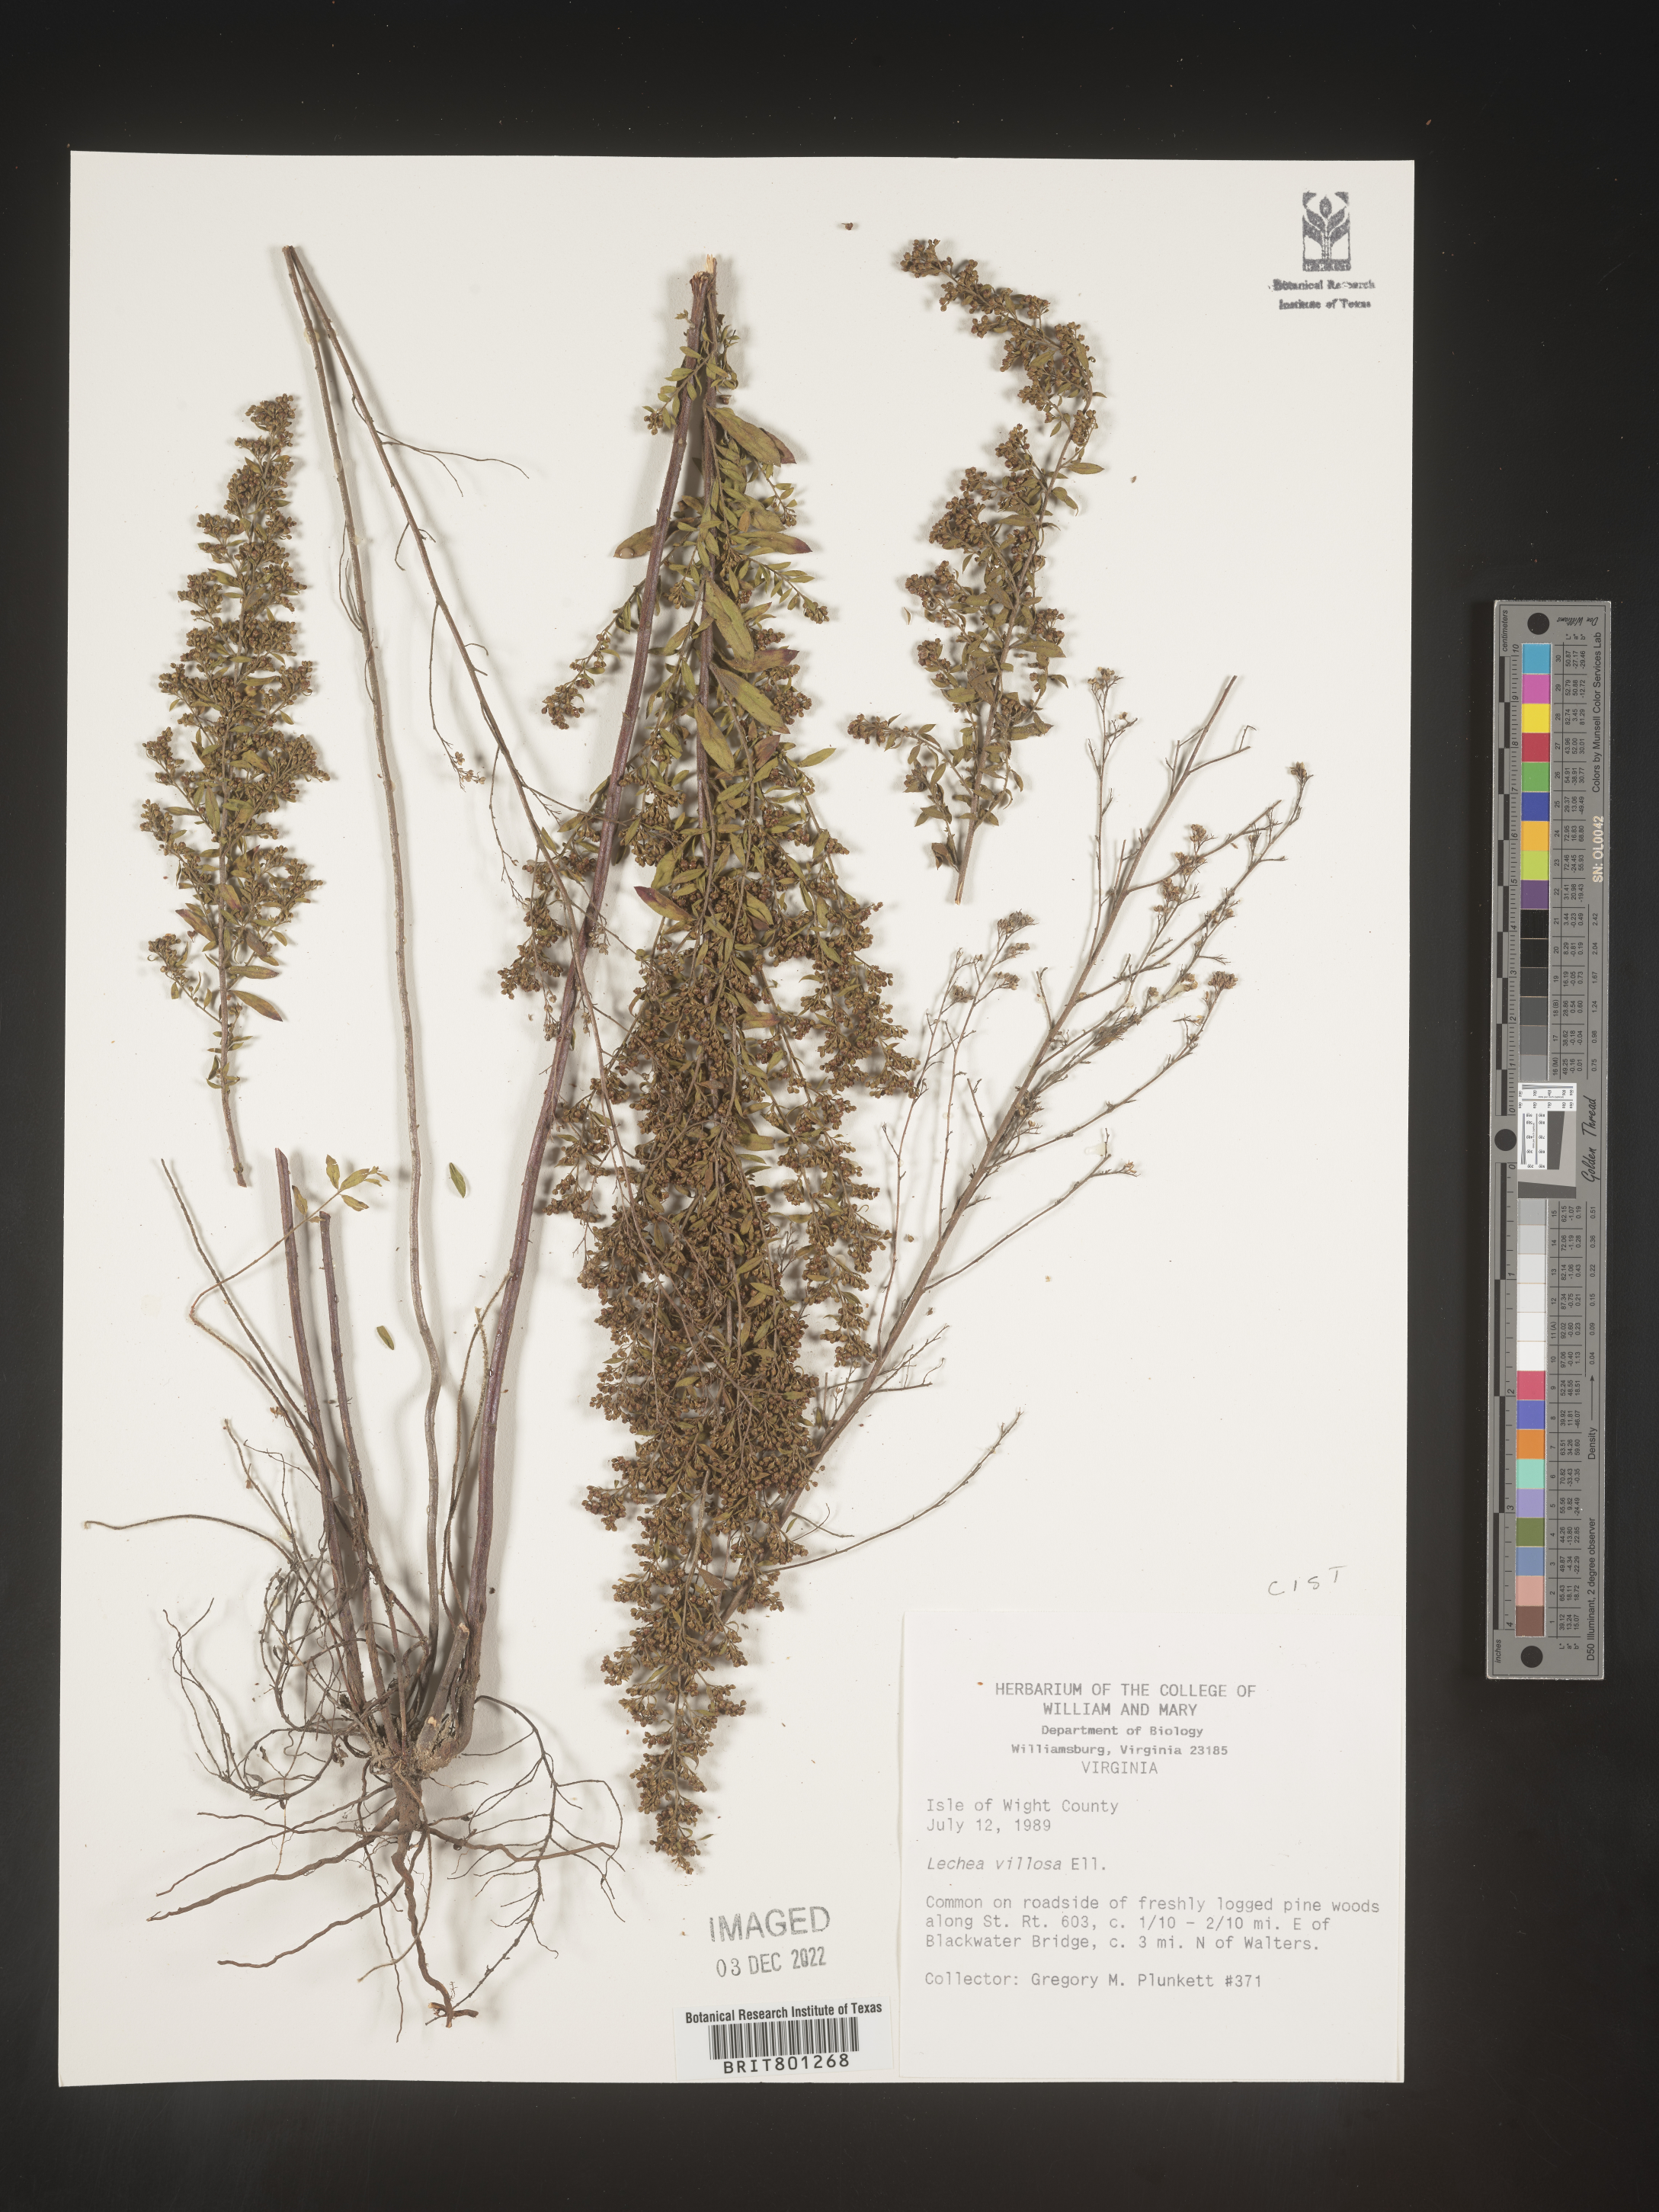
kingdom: Plantae
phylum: Tracheophyta
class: Magnoliopsida
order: Malvales
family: Cistaceae
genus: Lechea
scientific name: Lechea mucronata
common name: Hairy pinweed
